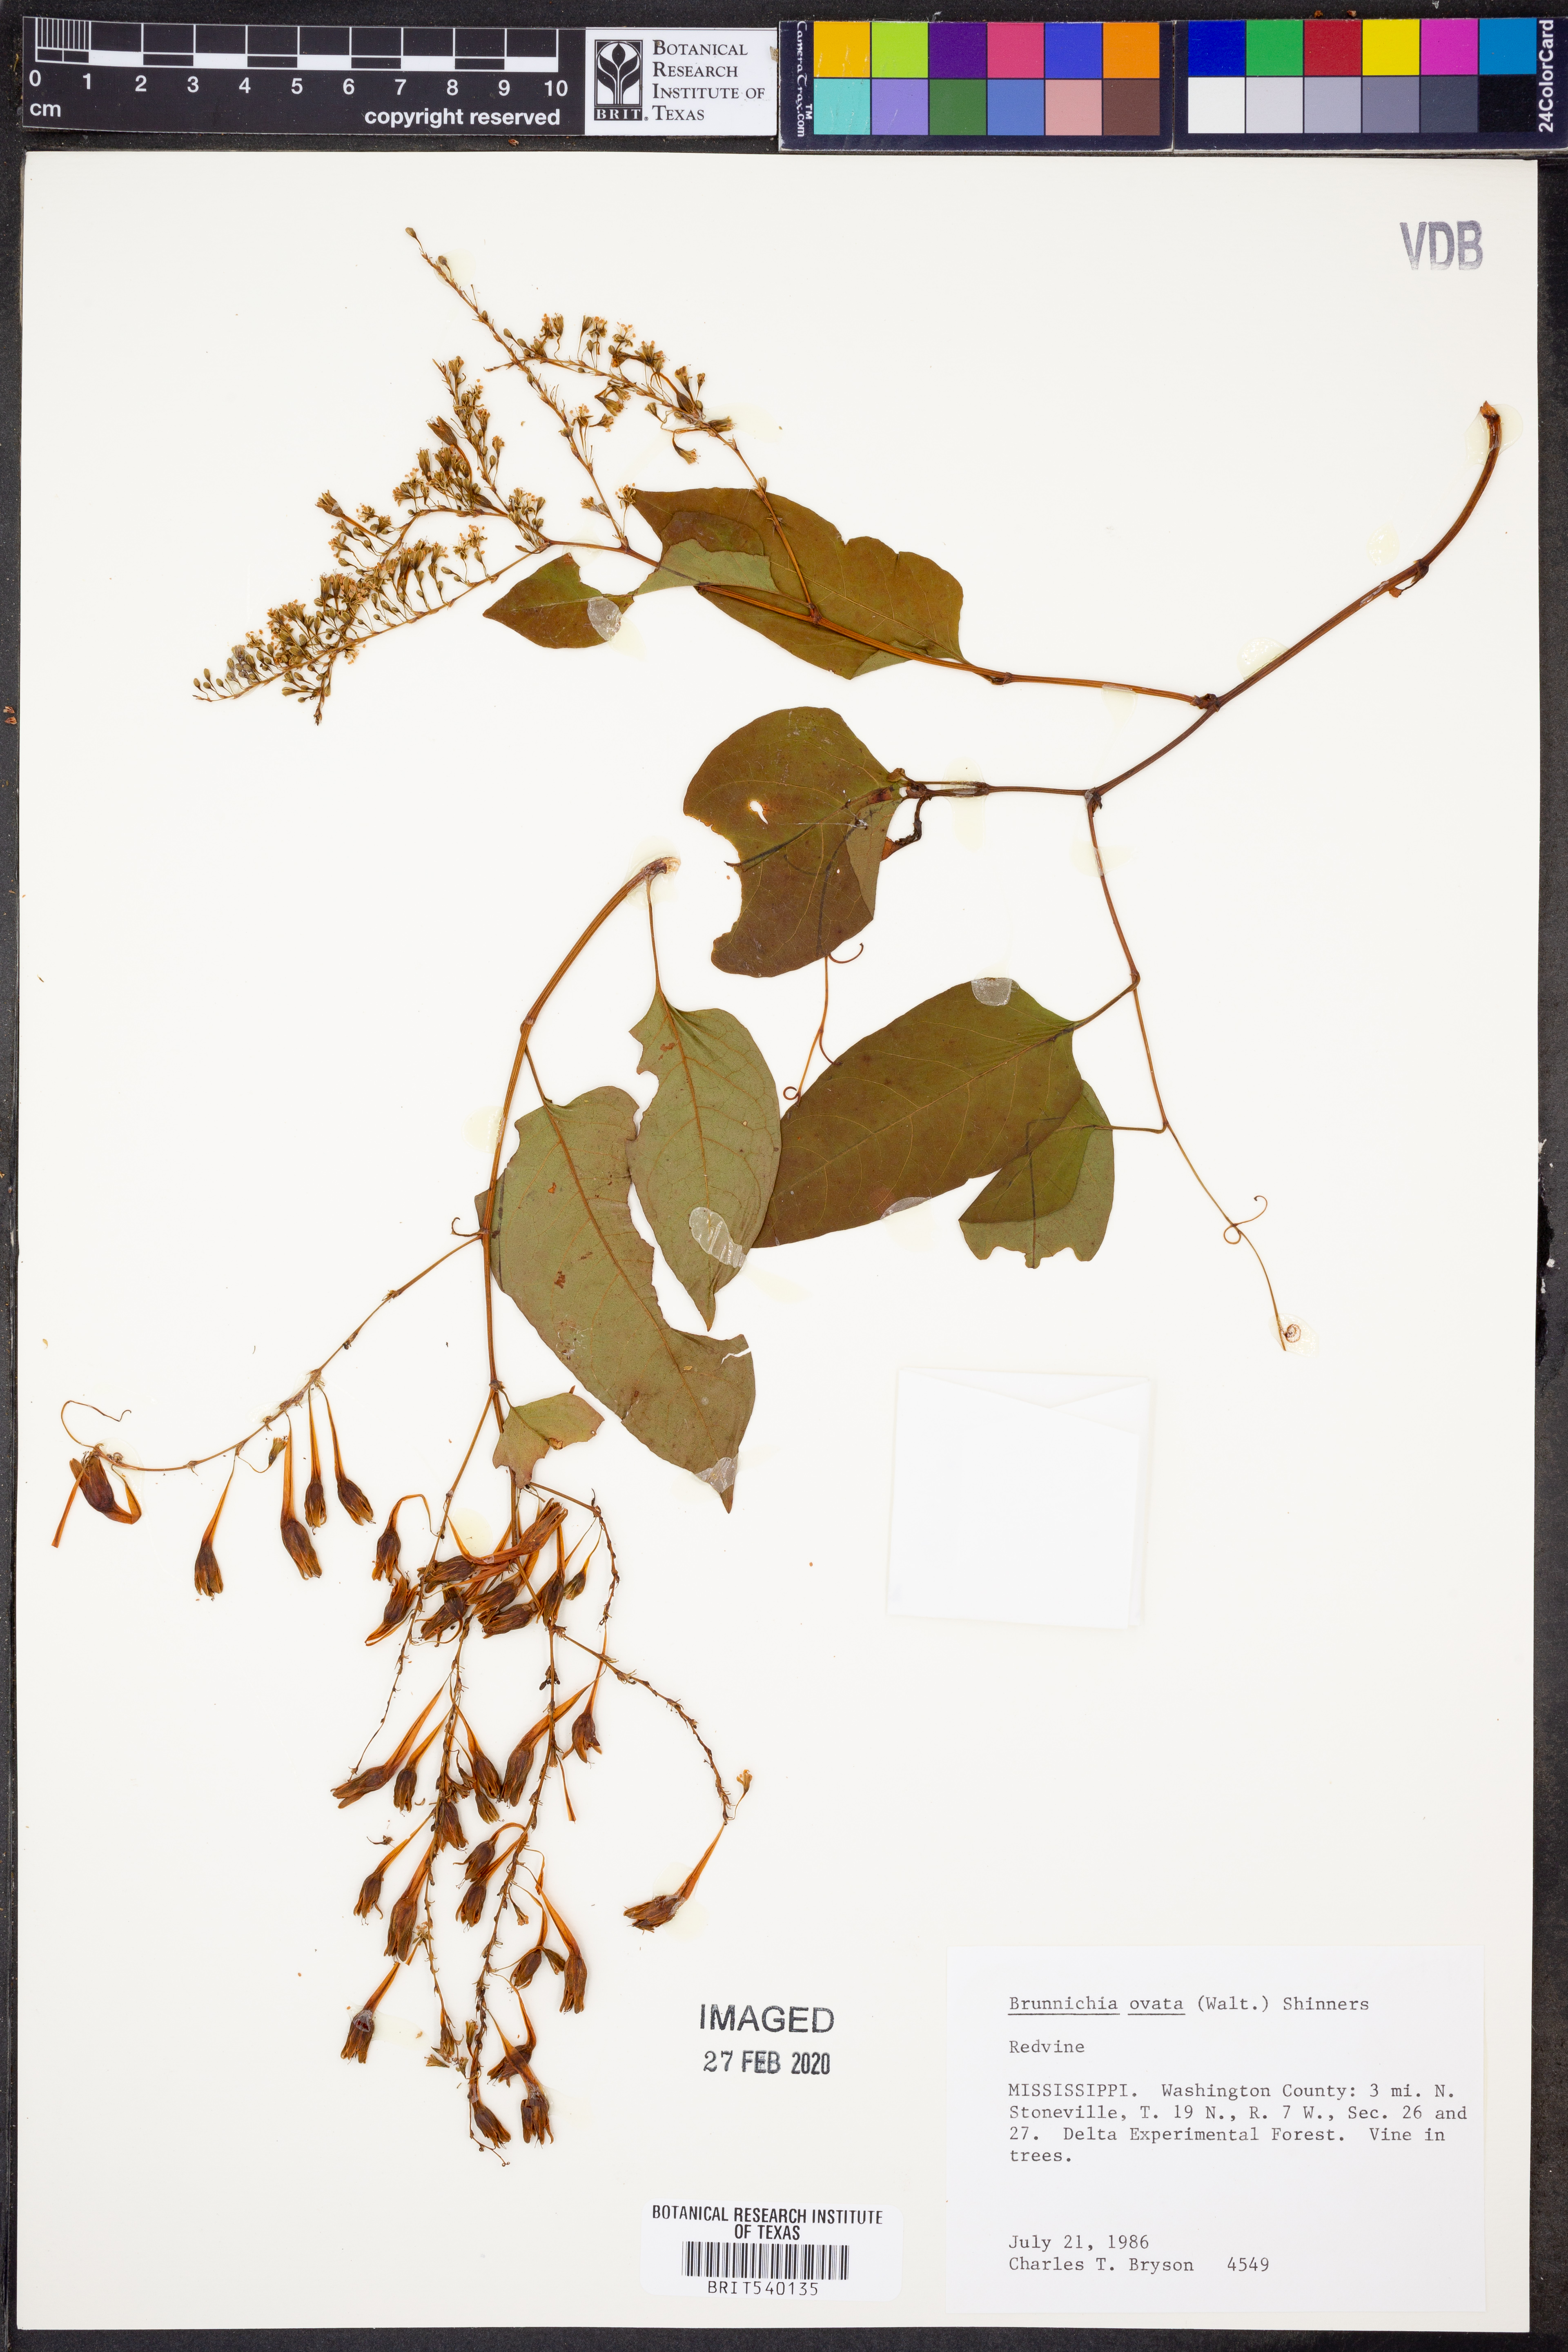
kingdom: Plantae
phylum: Tracheophyta
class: Magnoliopsida
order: Caryophyllales
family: Polygonaceae
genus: Brunnichia
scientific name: Brunnichia ovata
